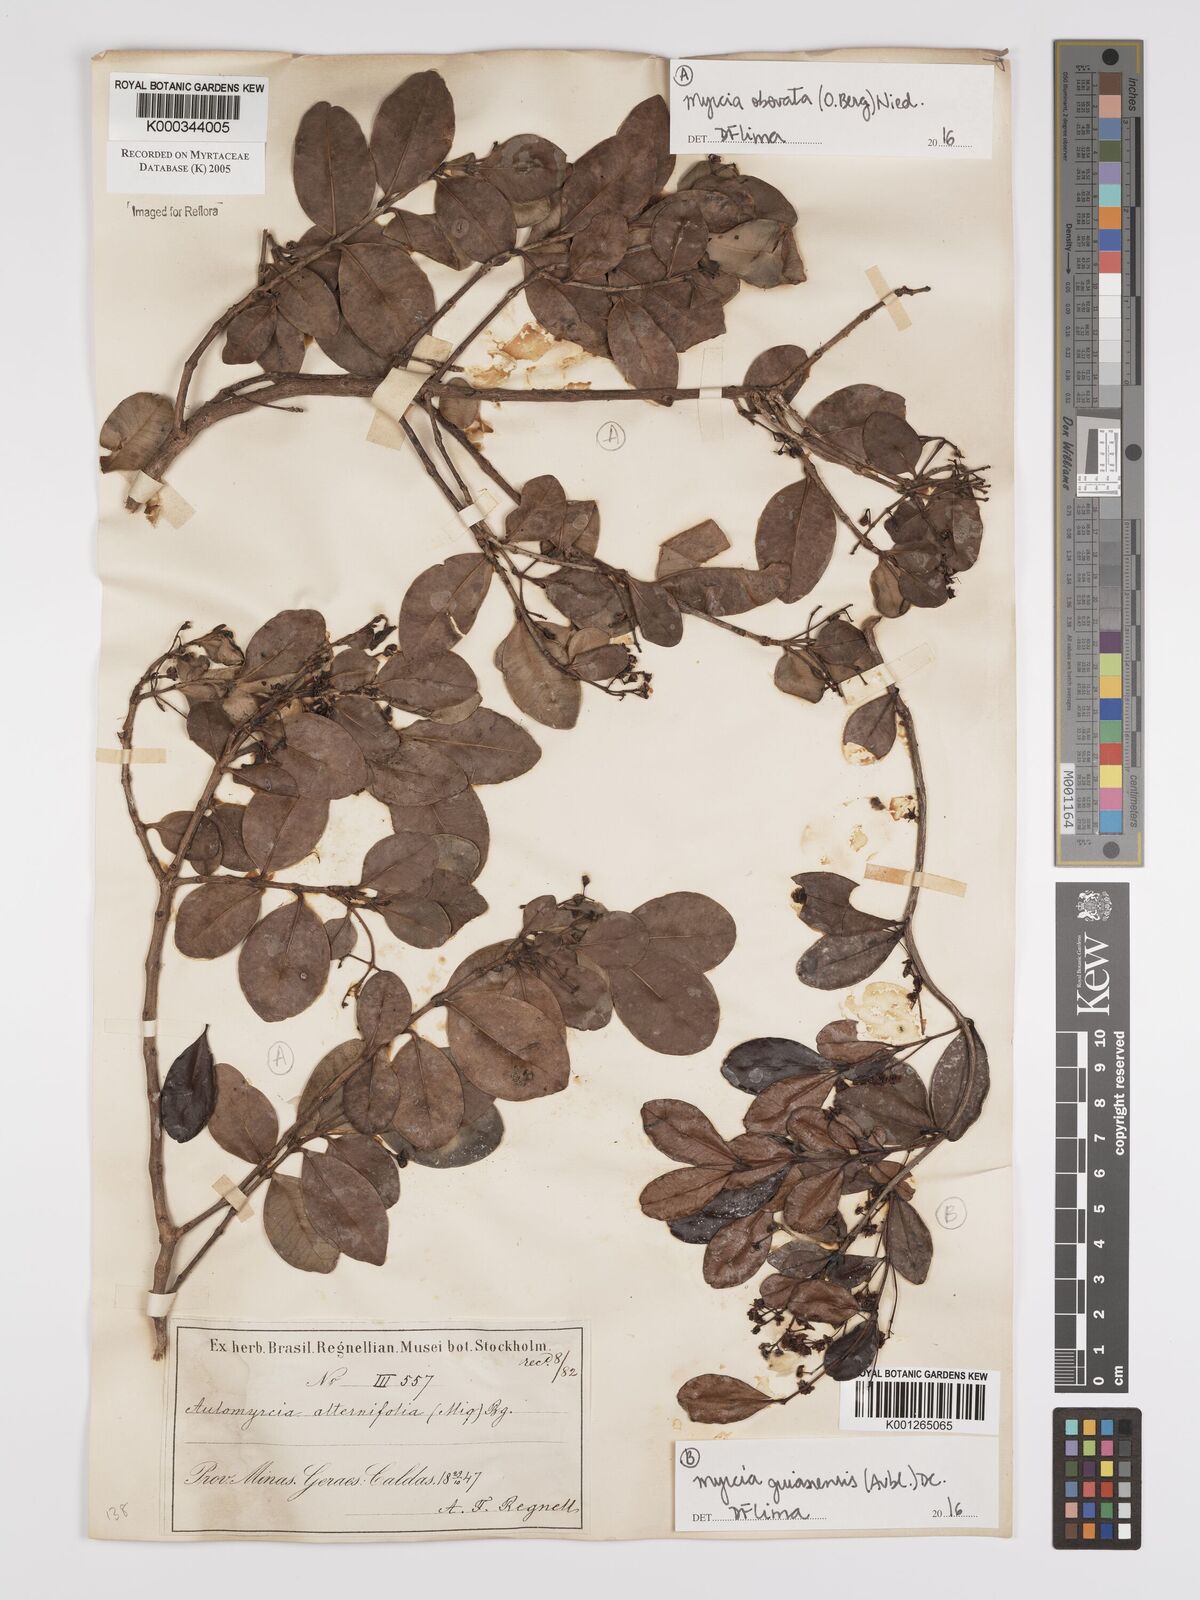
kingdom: Plantae
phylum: Tracheophyta
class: Magnoliopsida
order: Myrtales
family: Myrtaceae
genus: Myrcia
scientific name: Myrcia guianensis
